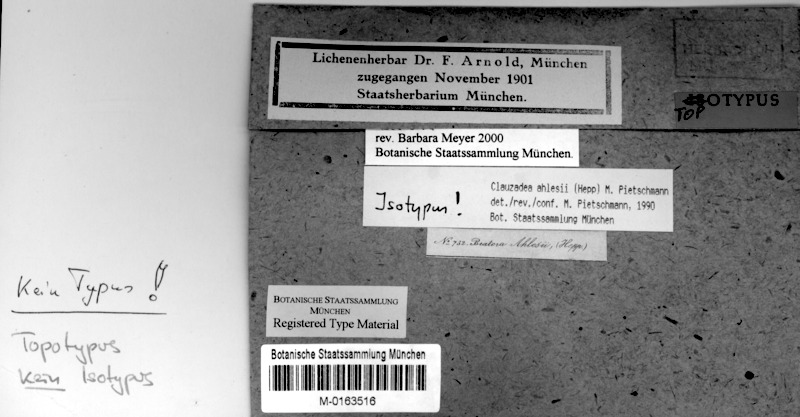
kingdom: Fungi
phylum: Ascomycota
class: Lecanoromycetes
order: Lecideales
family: Lecideaceae
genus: Bryobilimbia
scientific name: Bryobilimbia ahlesii
